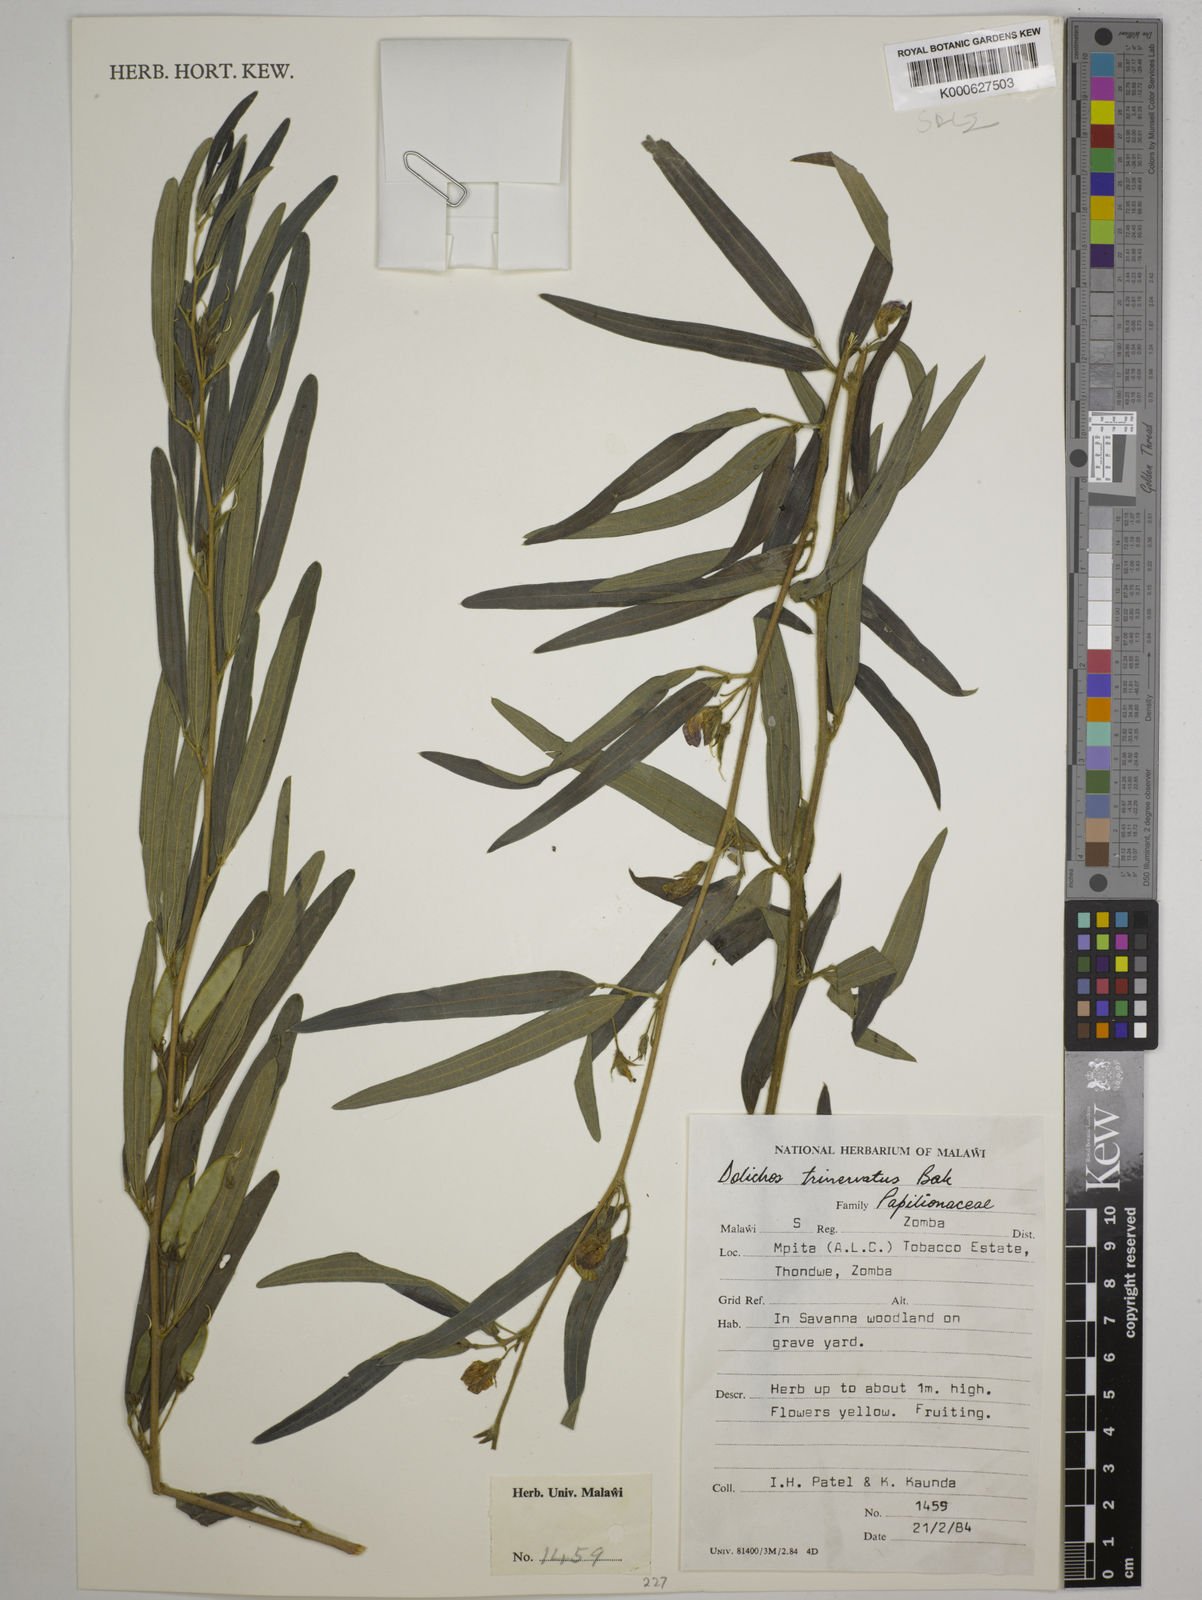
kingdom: Plantae
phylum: Tracheophyta
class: Magnoliopsida
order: Fabales
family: Fabaceae
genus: Dolichos
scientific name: Dolichos trinervatus
